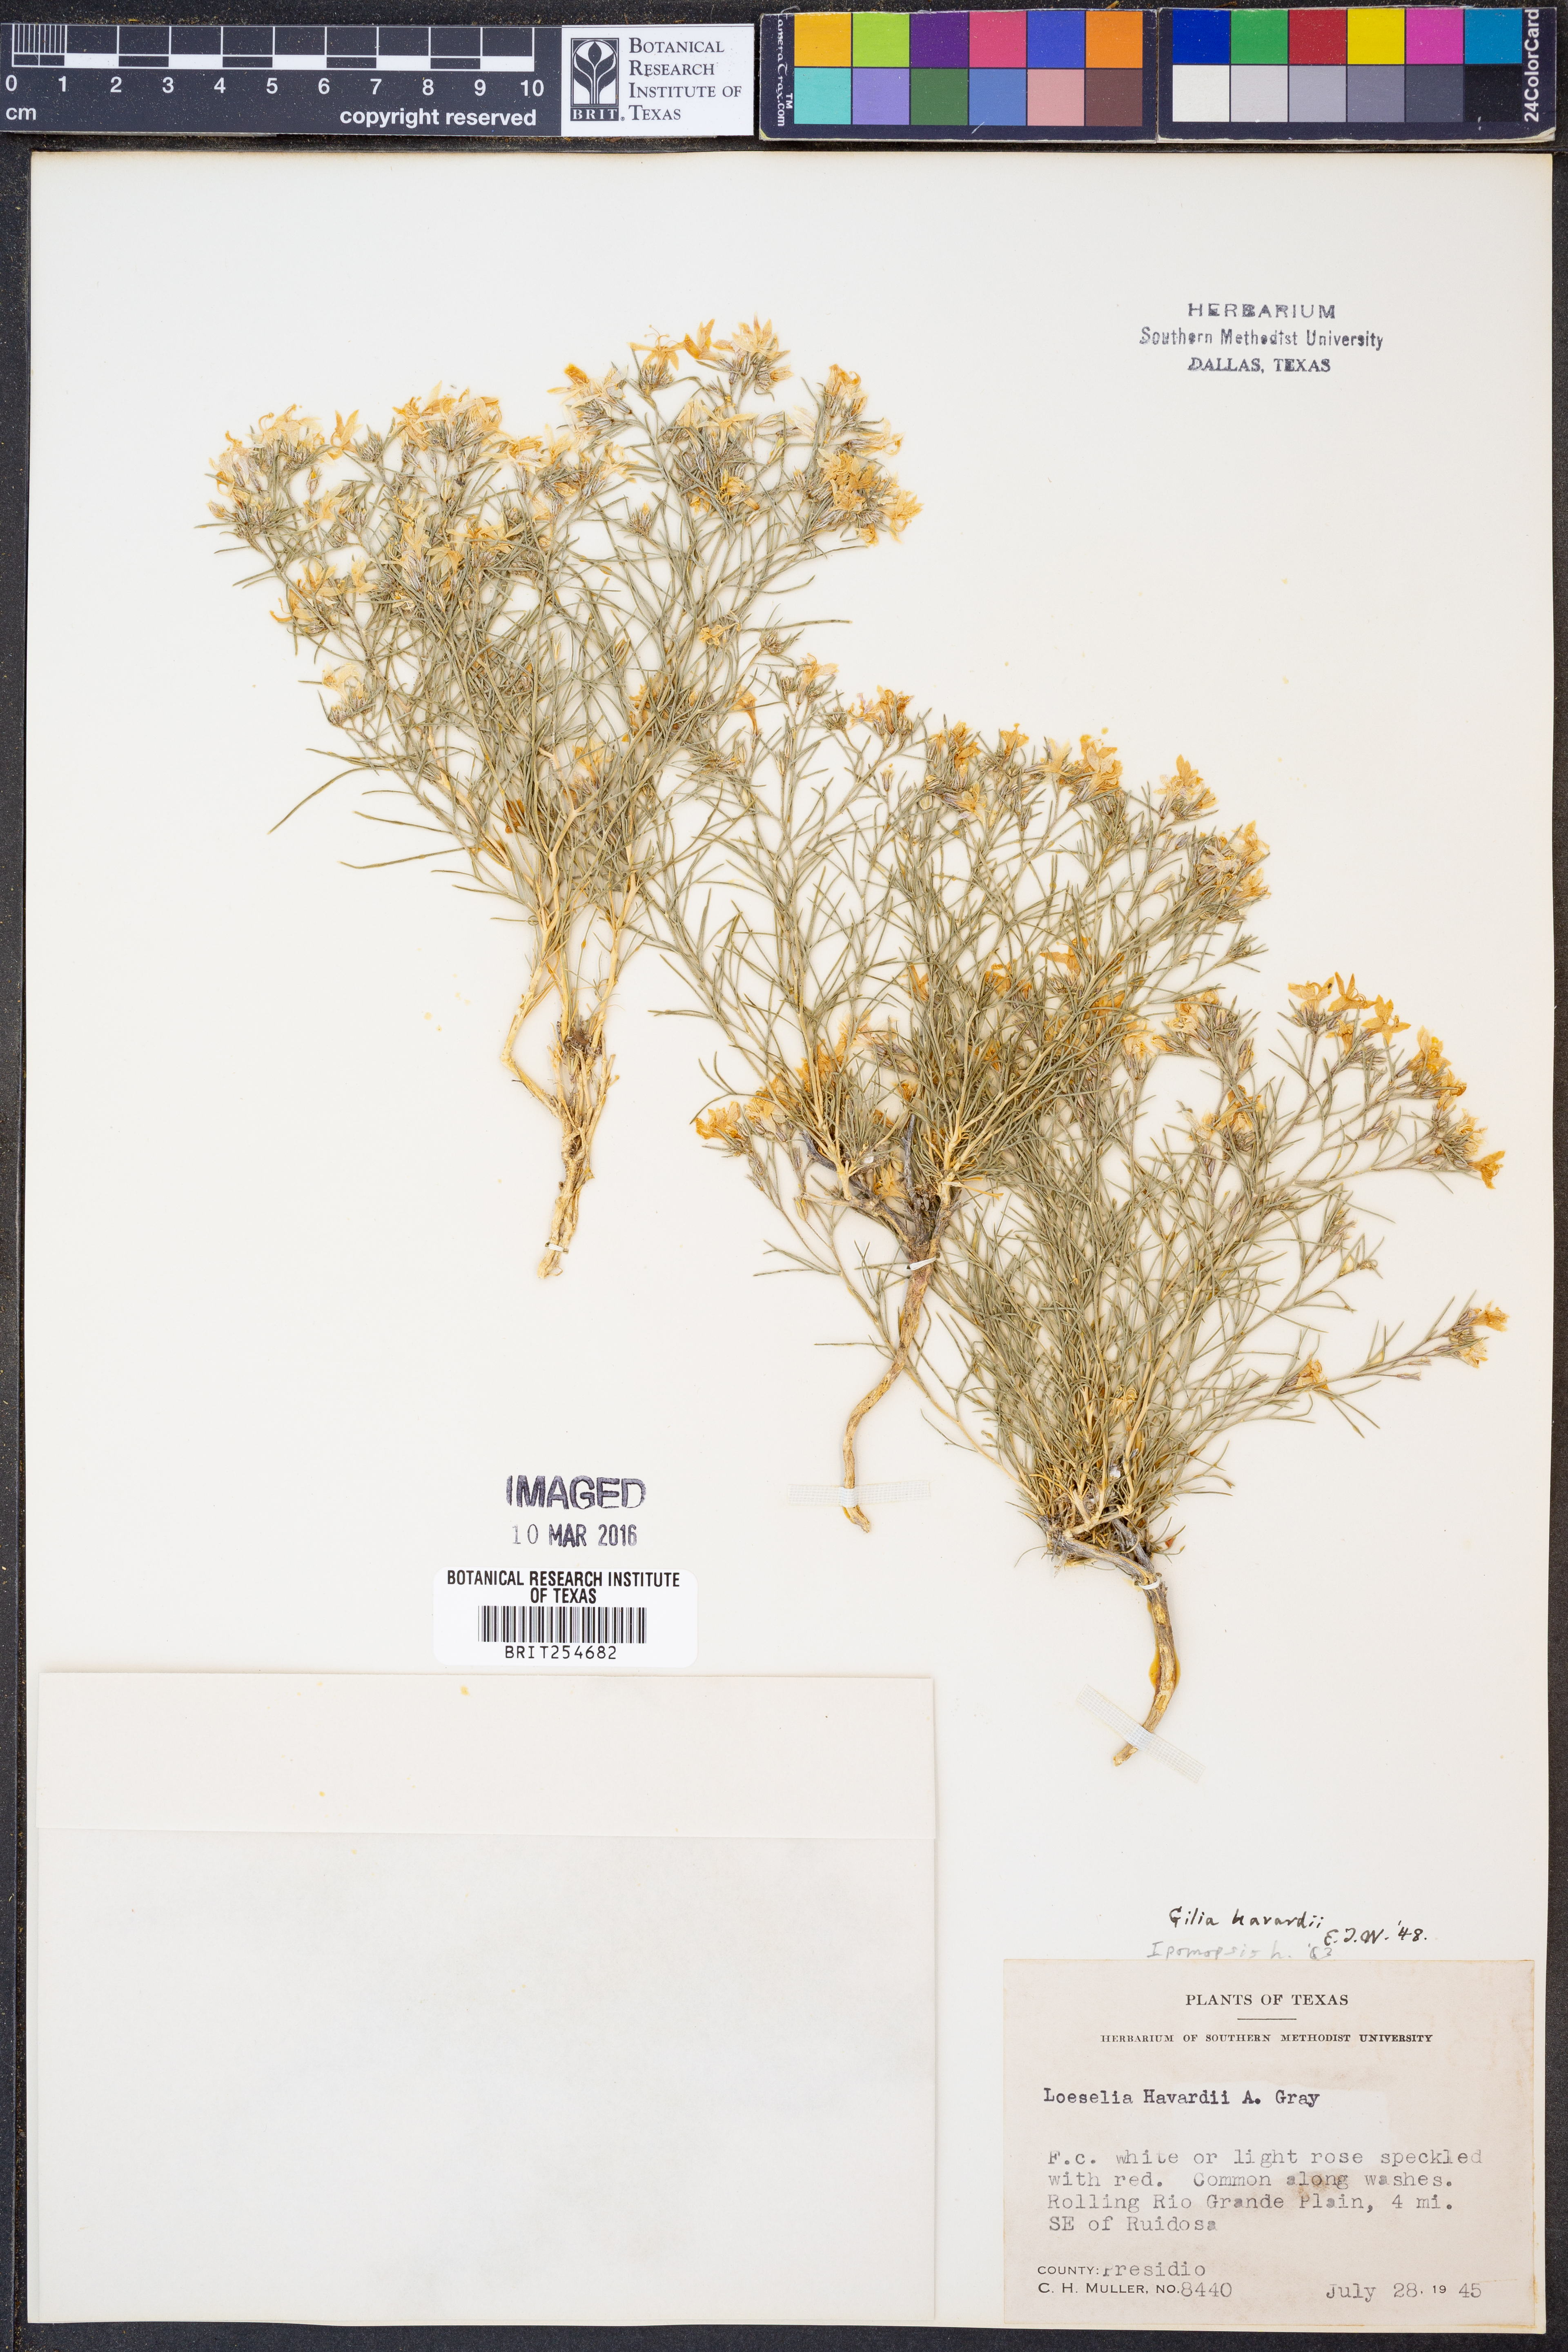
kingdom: Plantae
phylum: Tracheophyta
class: Magnoliopsida
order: Ericales
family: Polemoniaceae
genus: Dayia
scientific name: Dayia havardii
